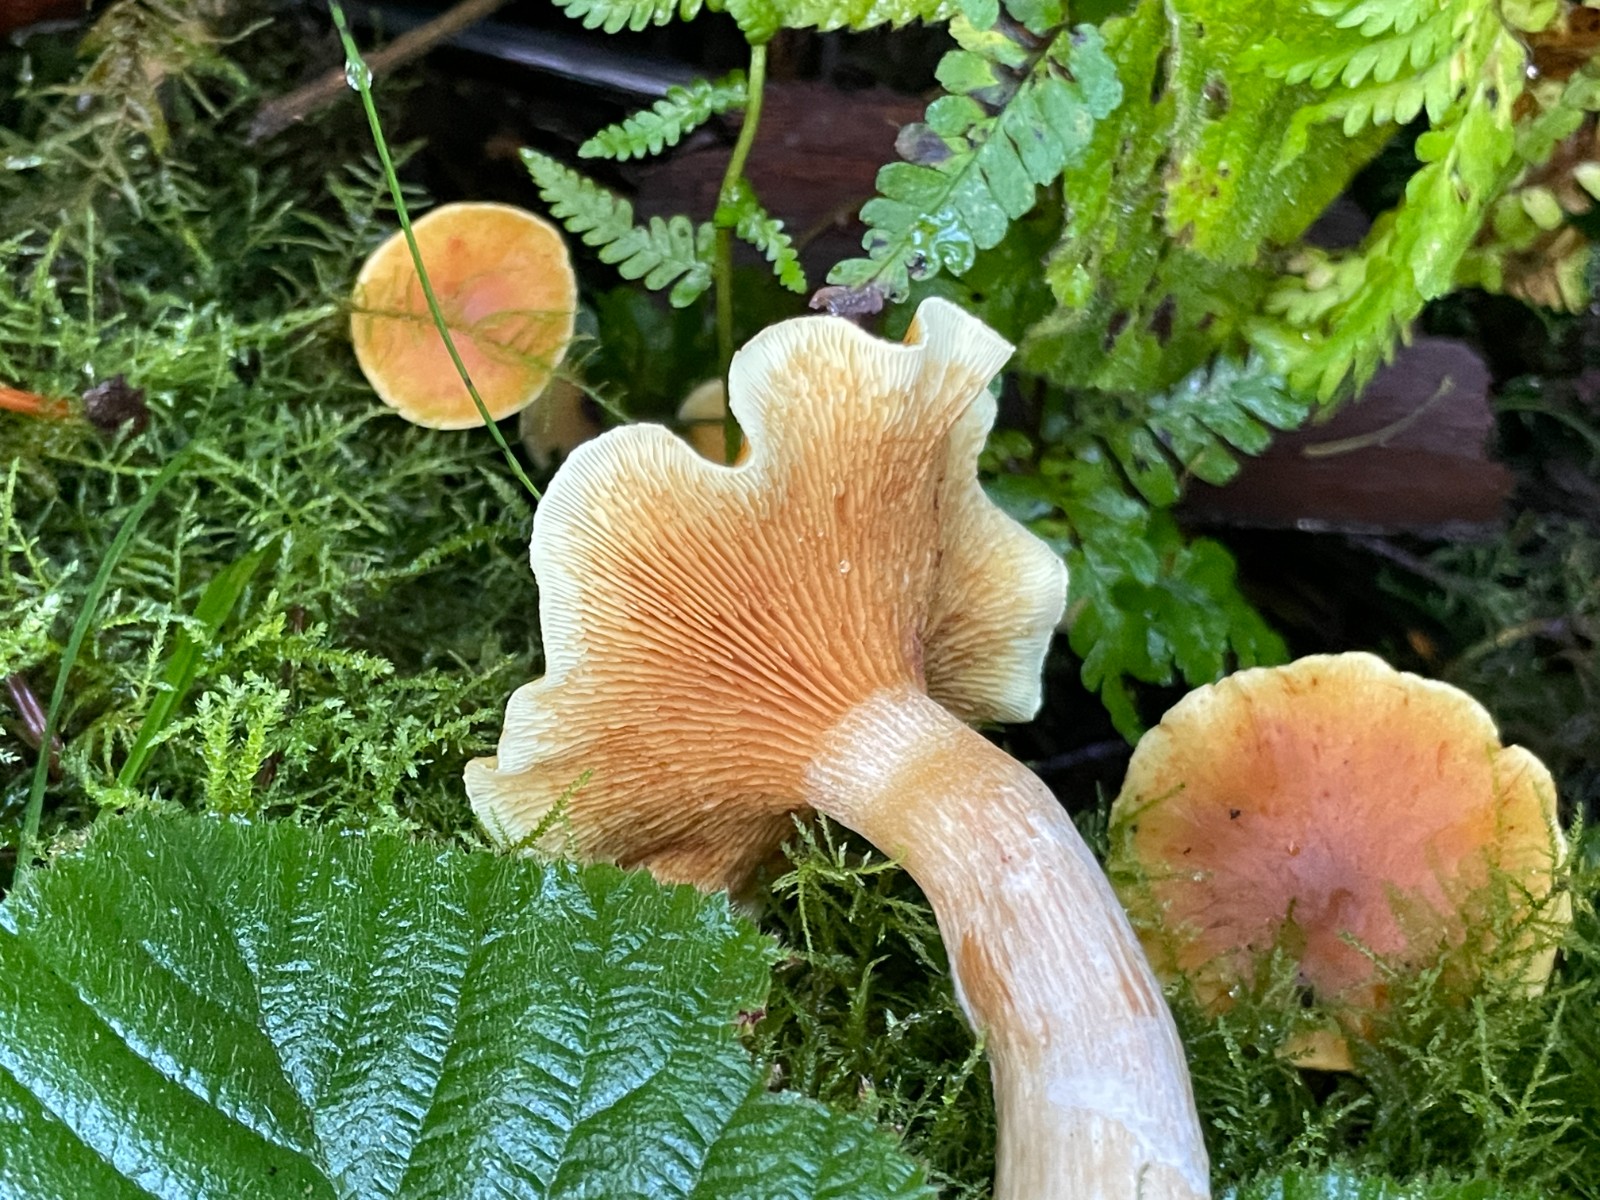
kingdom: Fungi
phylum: Basidiomycota
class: Agaricomycetes
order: Agaricales
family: Hymenogastraceae
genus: Gymnopilus
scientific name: Gymnopilus penetrans
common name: plettet flammehat
